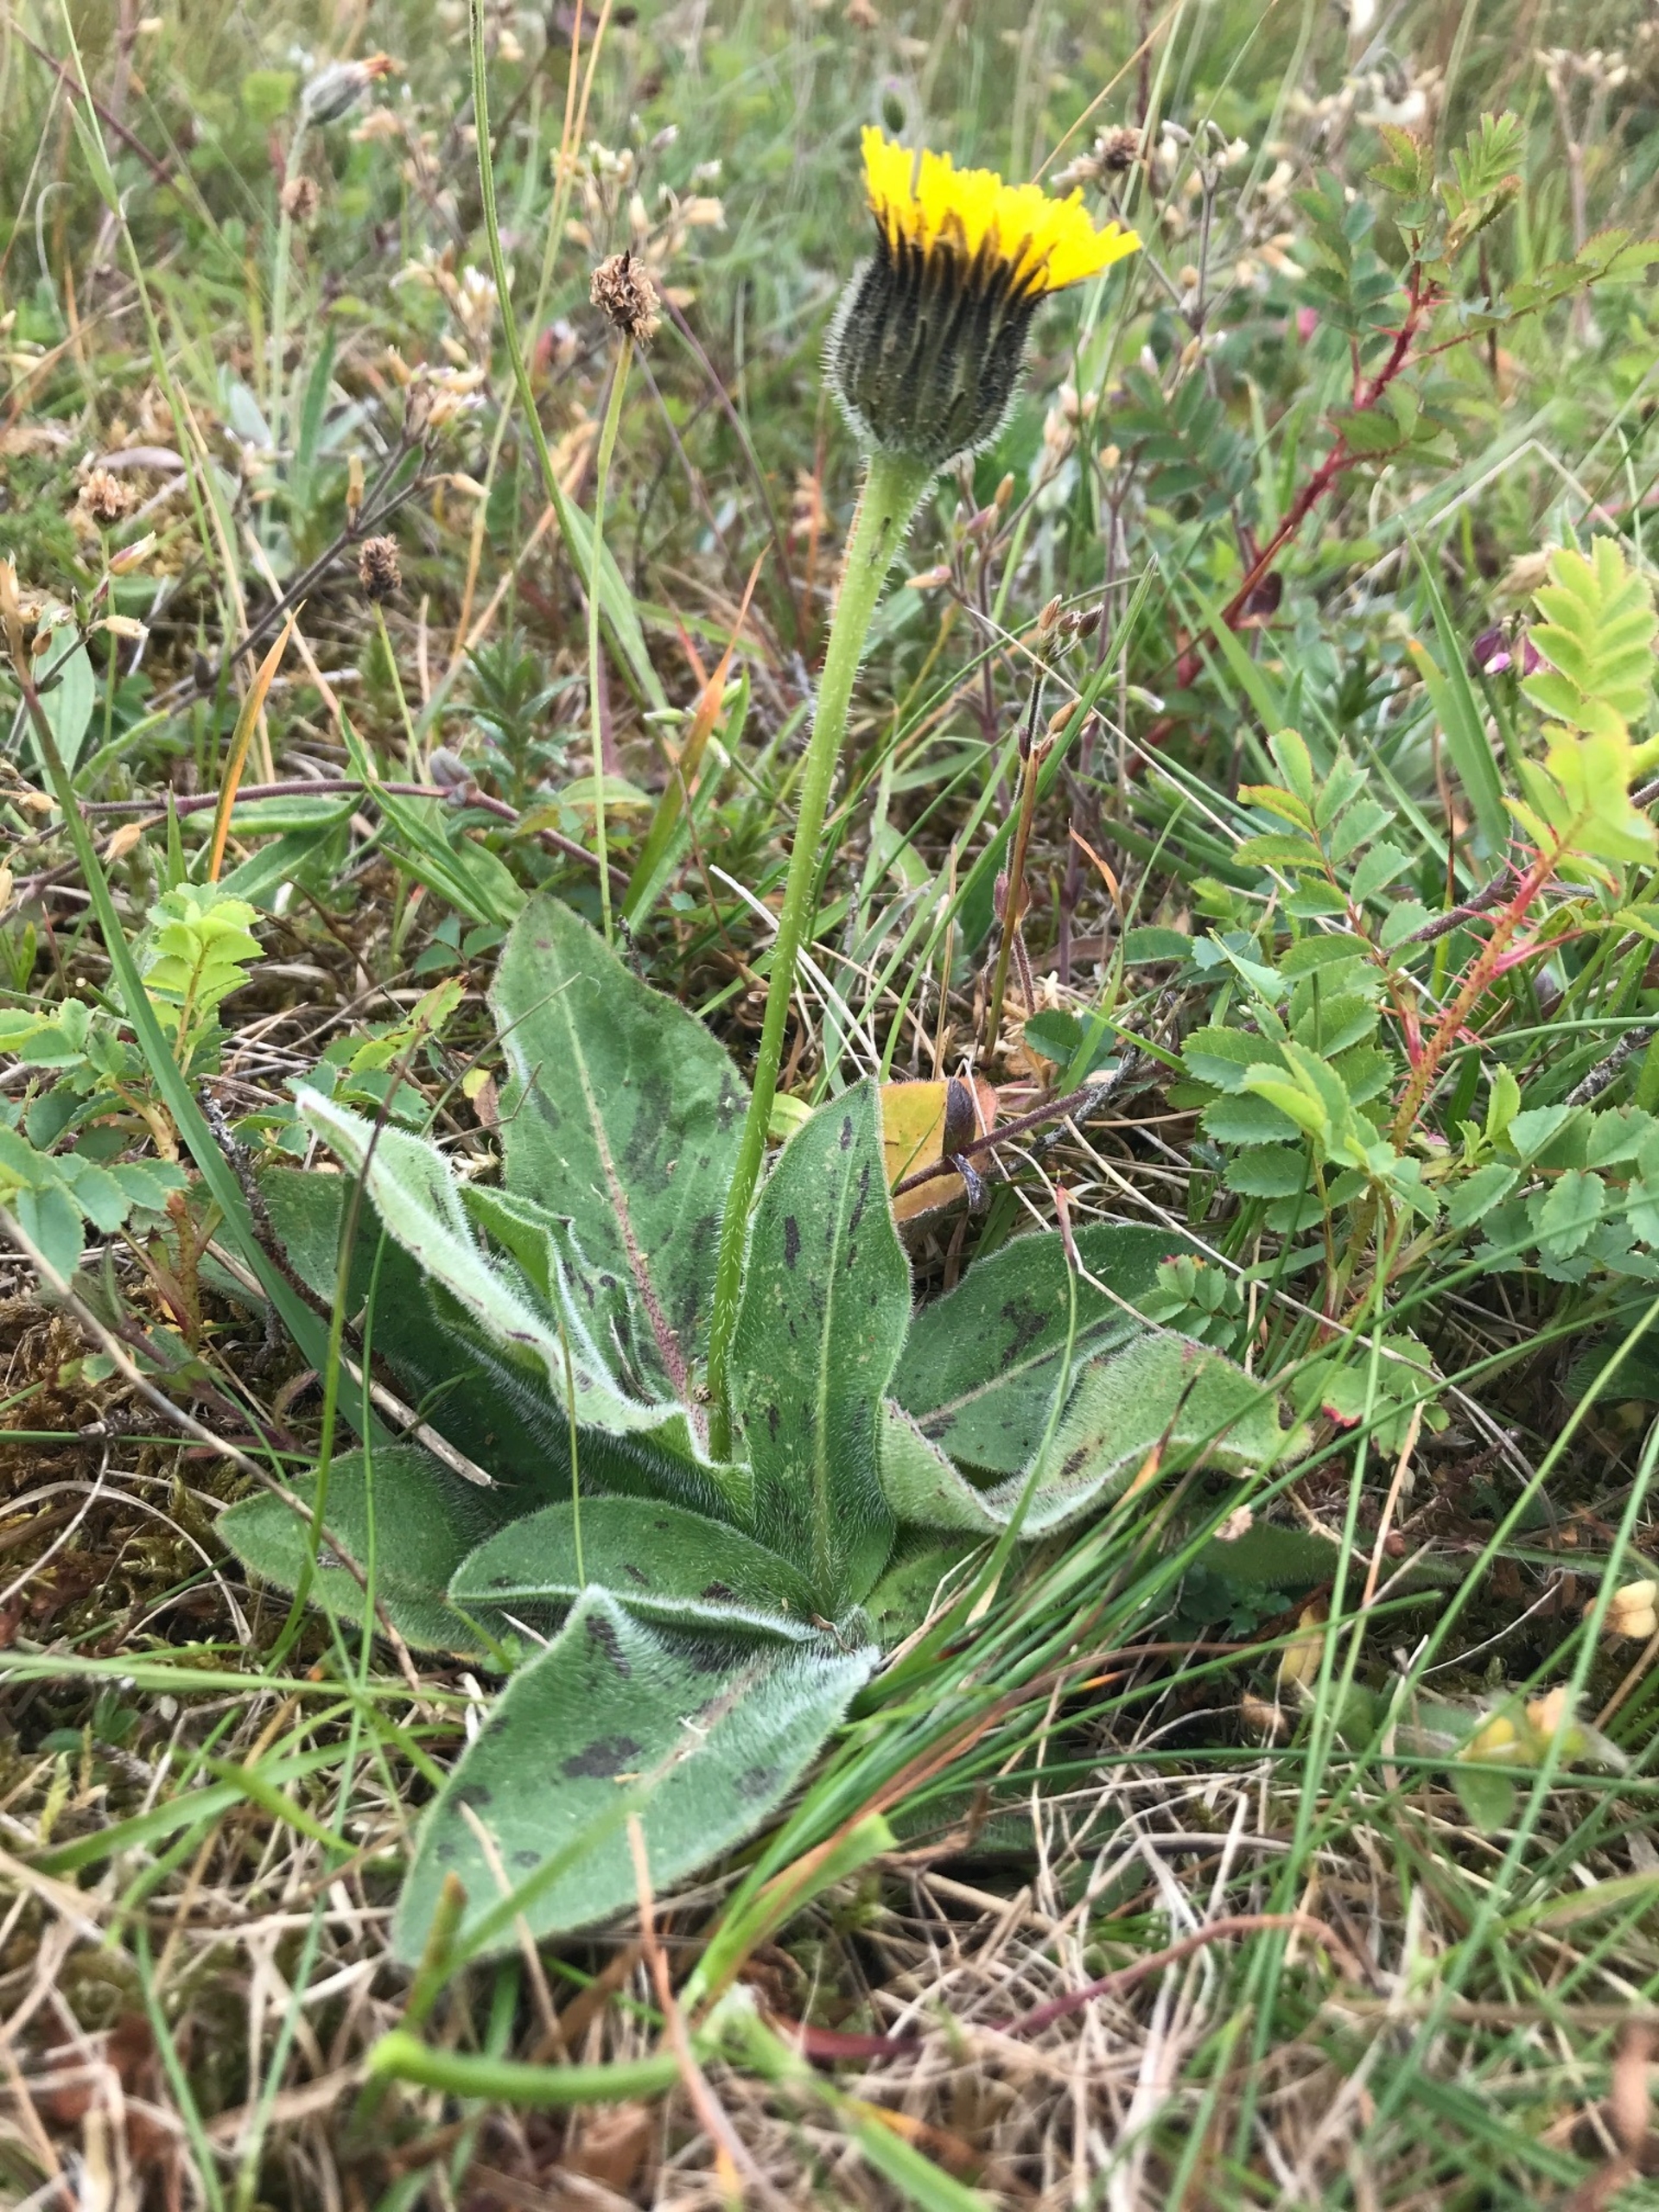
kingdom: Plantae
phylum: Tracheophyta
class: Magnoliopsida
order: Asterales
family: Asteraceae
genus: Trommsdorffia
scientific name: Trommsdorffia maculata
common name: Plettet kongepen
